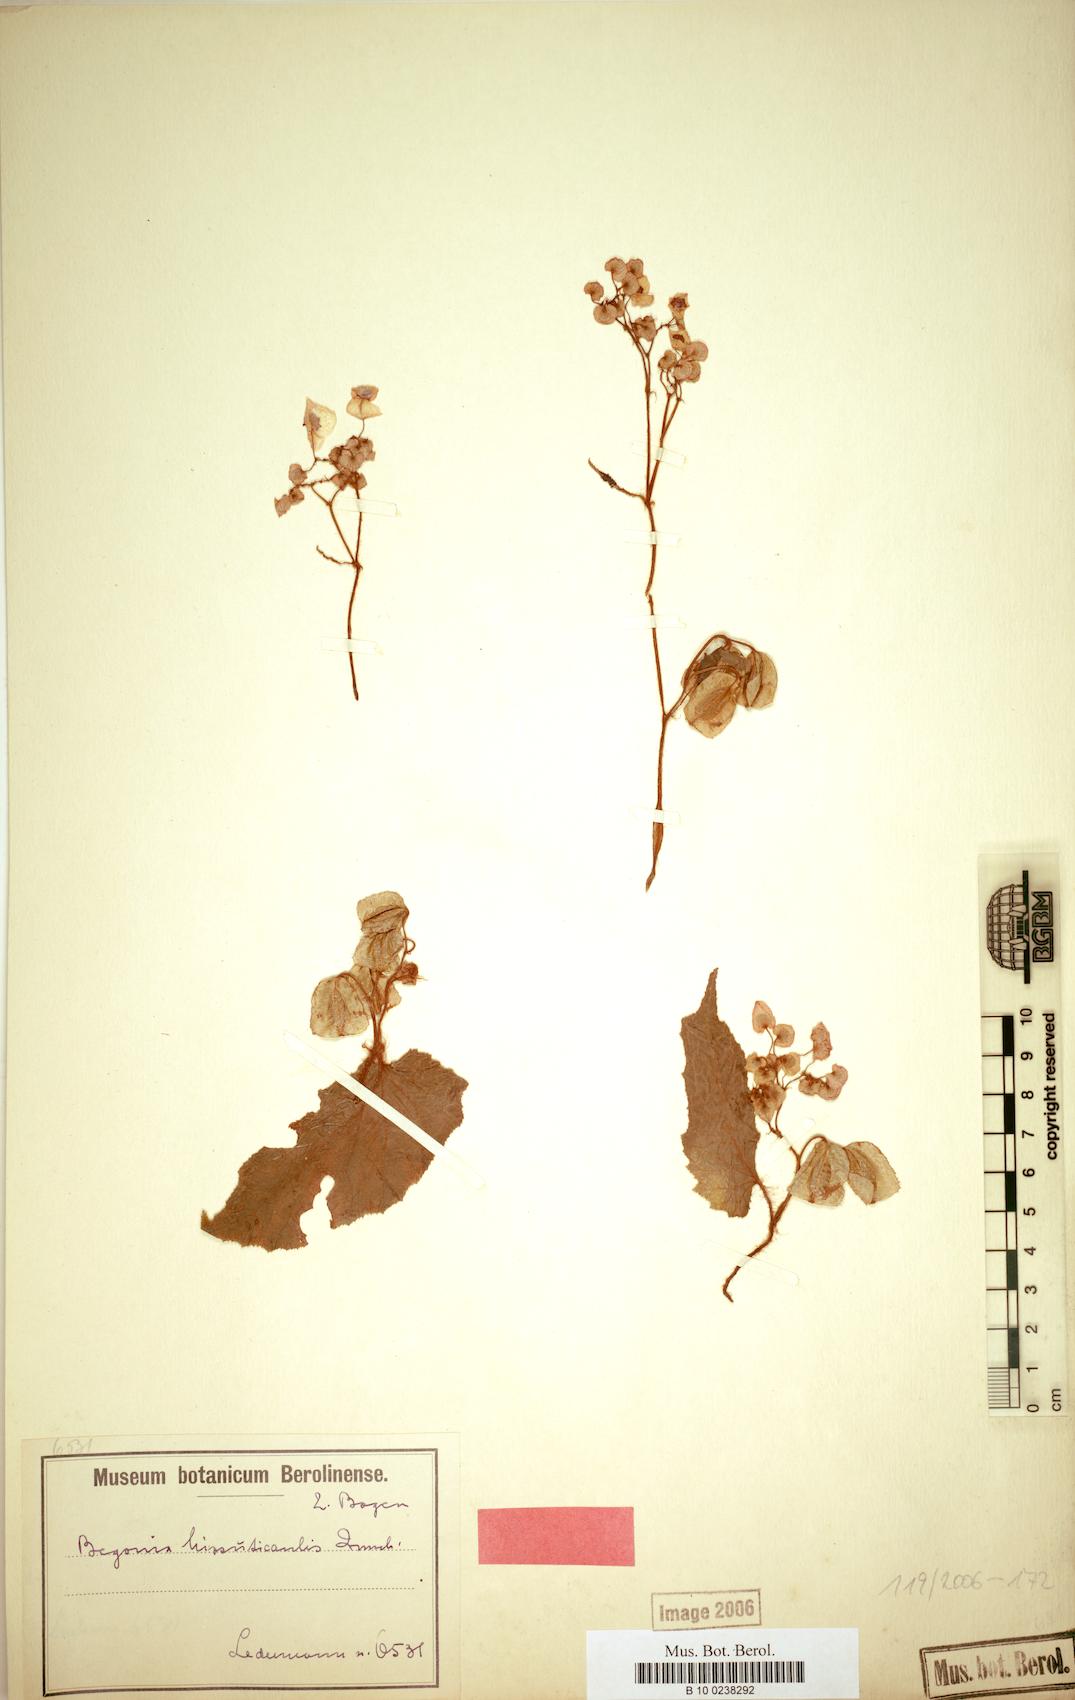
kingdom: Plantae
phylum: Tracheophyta
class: Magnoliopsida
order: Cucurbitales
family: Begoniaceae
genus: Begonia
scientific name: Begonia hirsuticaulis
